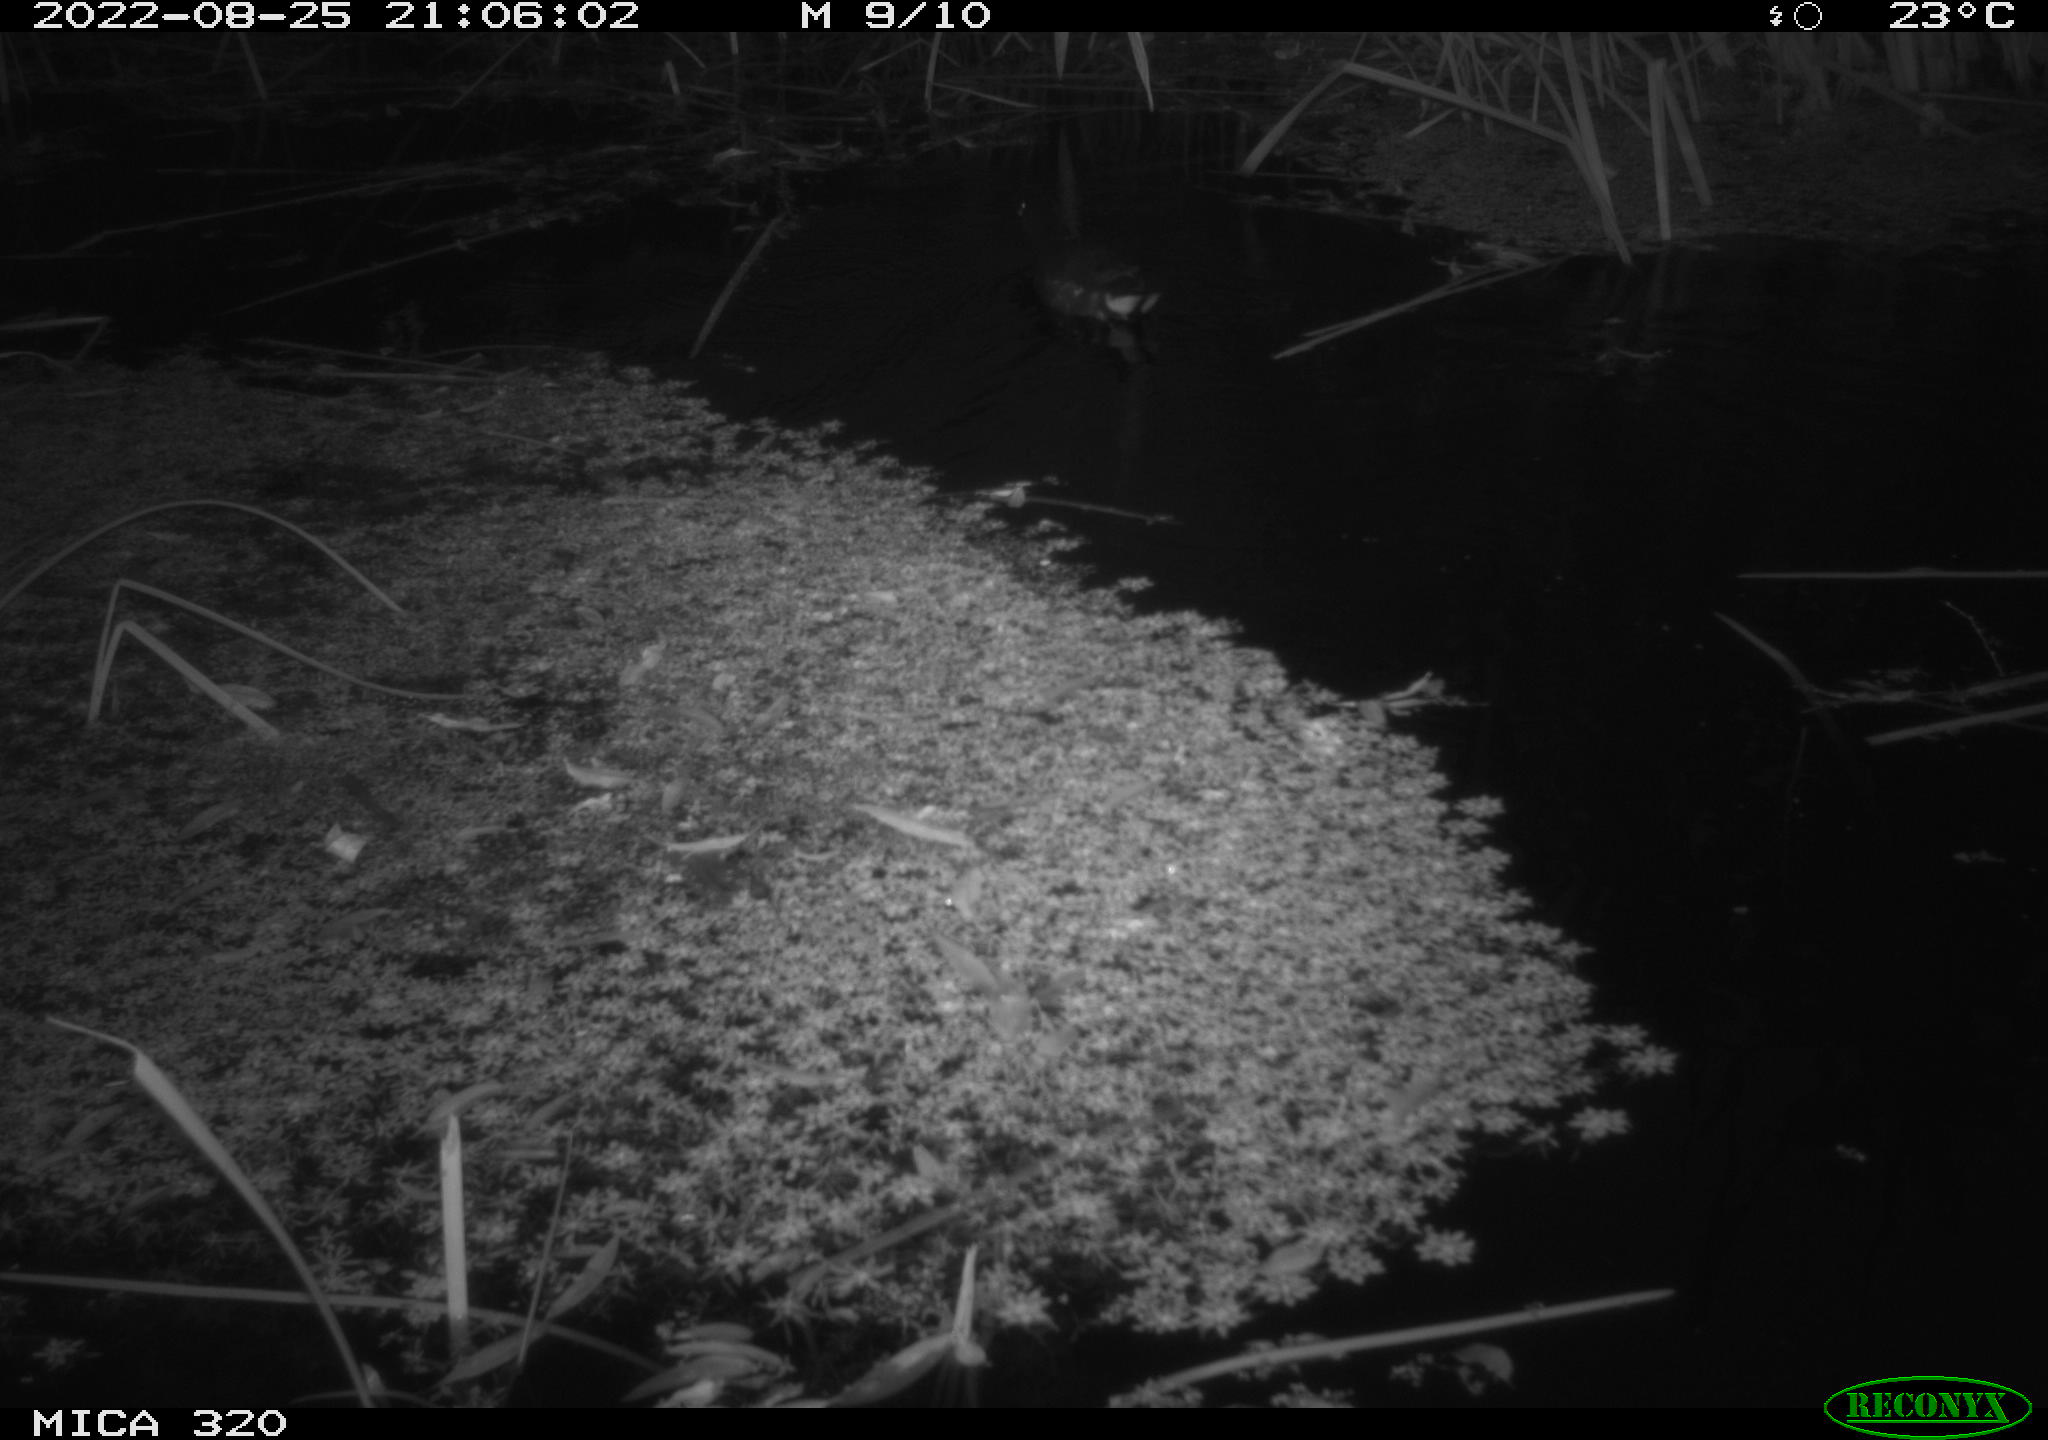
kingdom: Animalia
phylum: Chordata
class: Aves
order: Gruiformes
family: Rallidae
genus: Gallinula
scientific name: Gallinula chloropus
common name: Common moorhen
